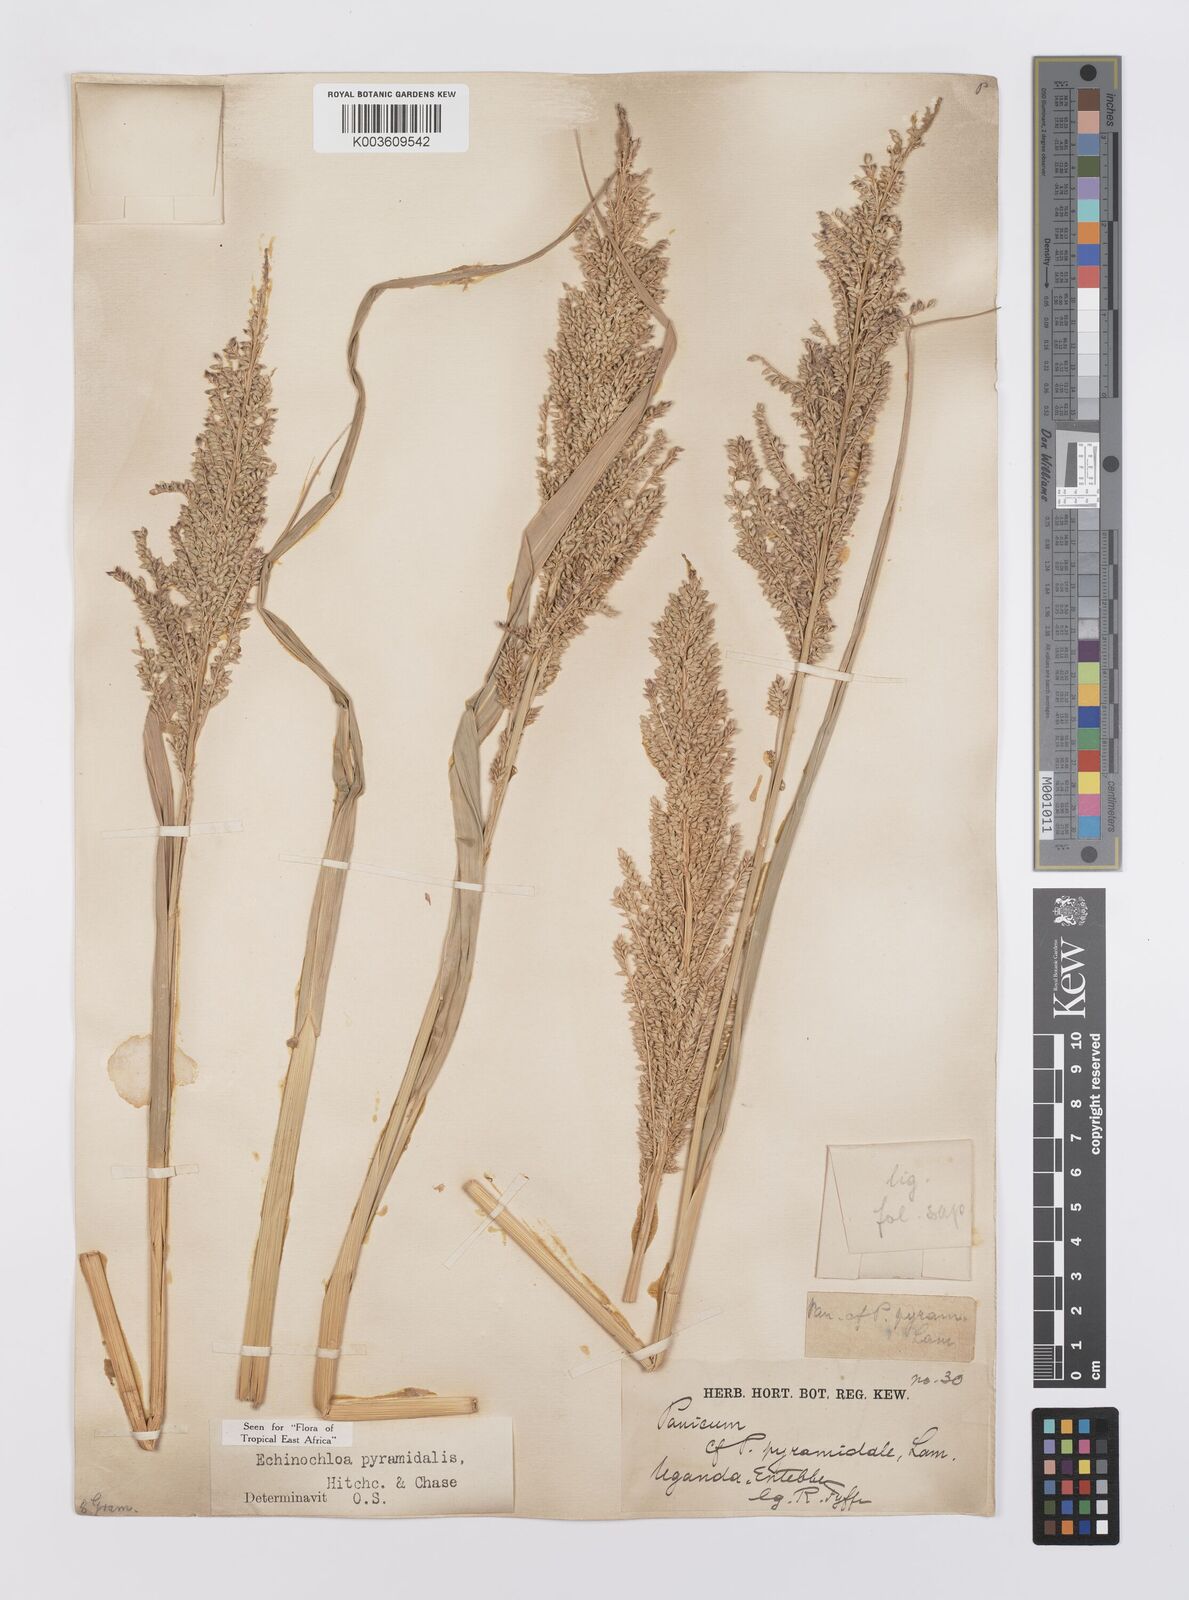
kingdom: Plantae
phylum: Tracheophyta
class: Liliopsida
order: Poales
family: Poaceae
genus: Echinochloa
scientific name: Echinochloa pyramidalis
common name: Antelope grass
